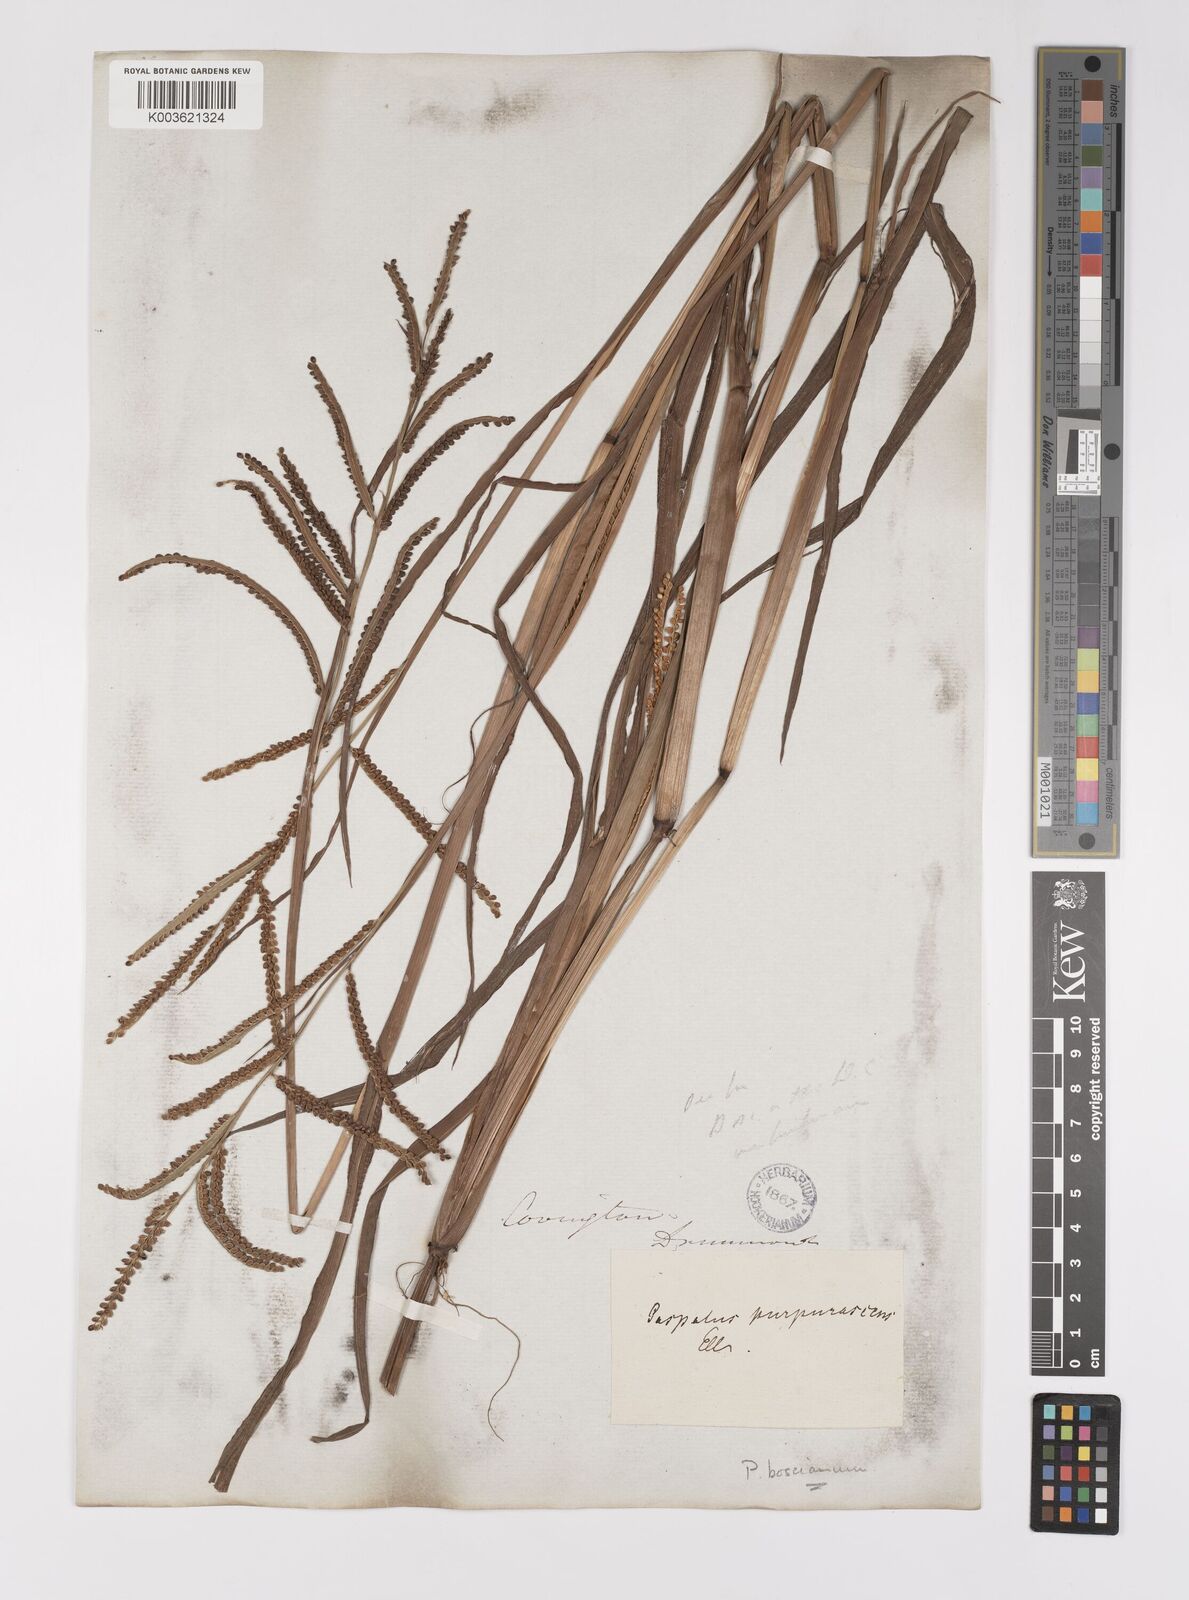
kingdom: Plantae
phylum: Tracheophyta
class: Liliopsida
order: Poales
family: Poaceae
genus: Paspalum
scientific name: Paspalum scrobiculatum
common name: Kodo millet
